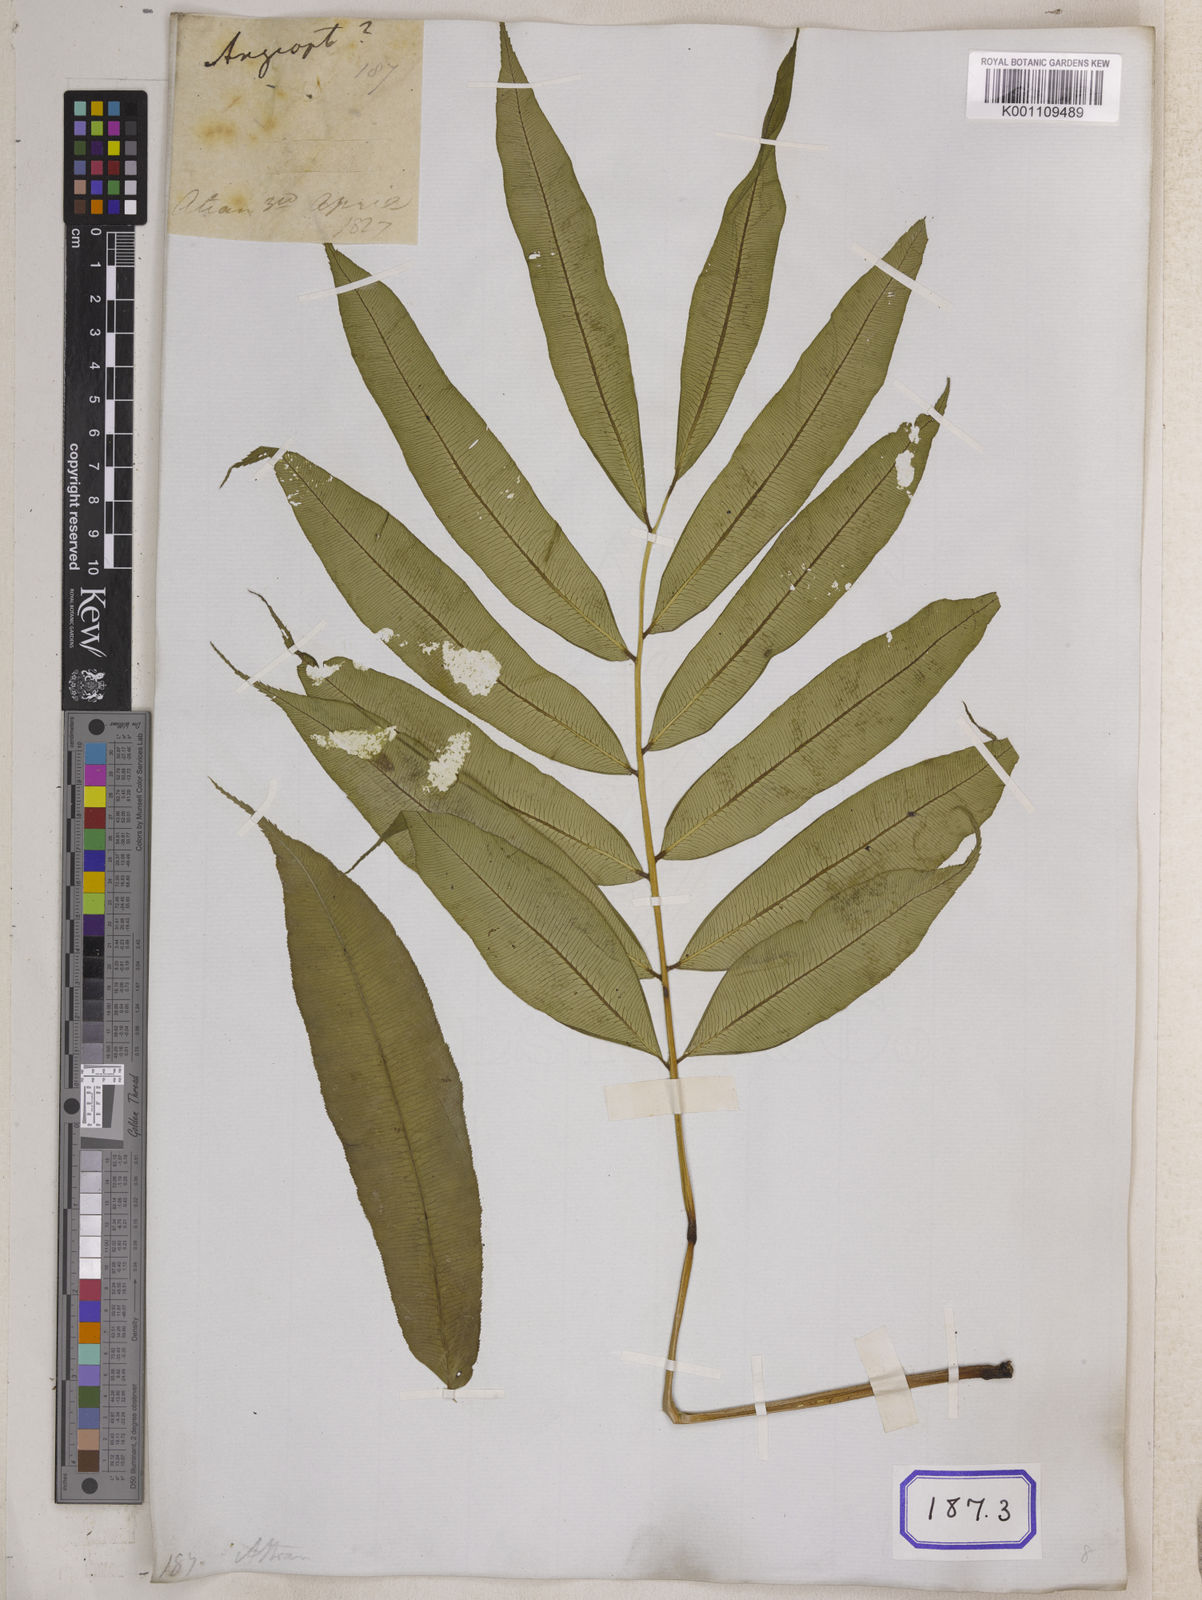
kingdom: Plantae
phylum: Tracheophyta
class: Polypodiopsida
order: Marattiales
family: Marattiaceae
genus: Angiopteris
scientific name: Angiopteris crassipes
